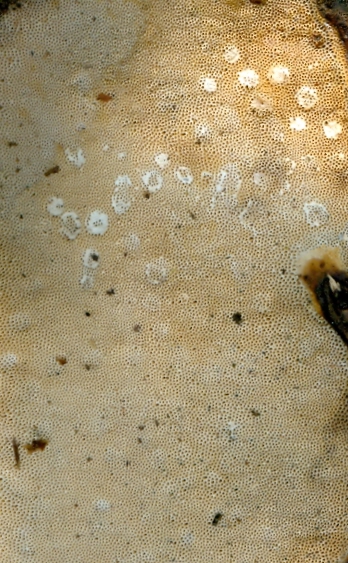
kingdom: Fungi
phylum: Basidiomycota
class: Agaricomycetes
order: Polyporales
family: Fomitopsidaceae
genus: Fomitopsis
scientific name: Fomitopsis pinicola
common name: randbæltet hovporesvamp
